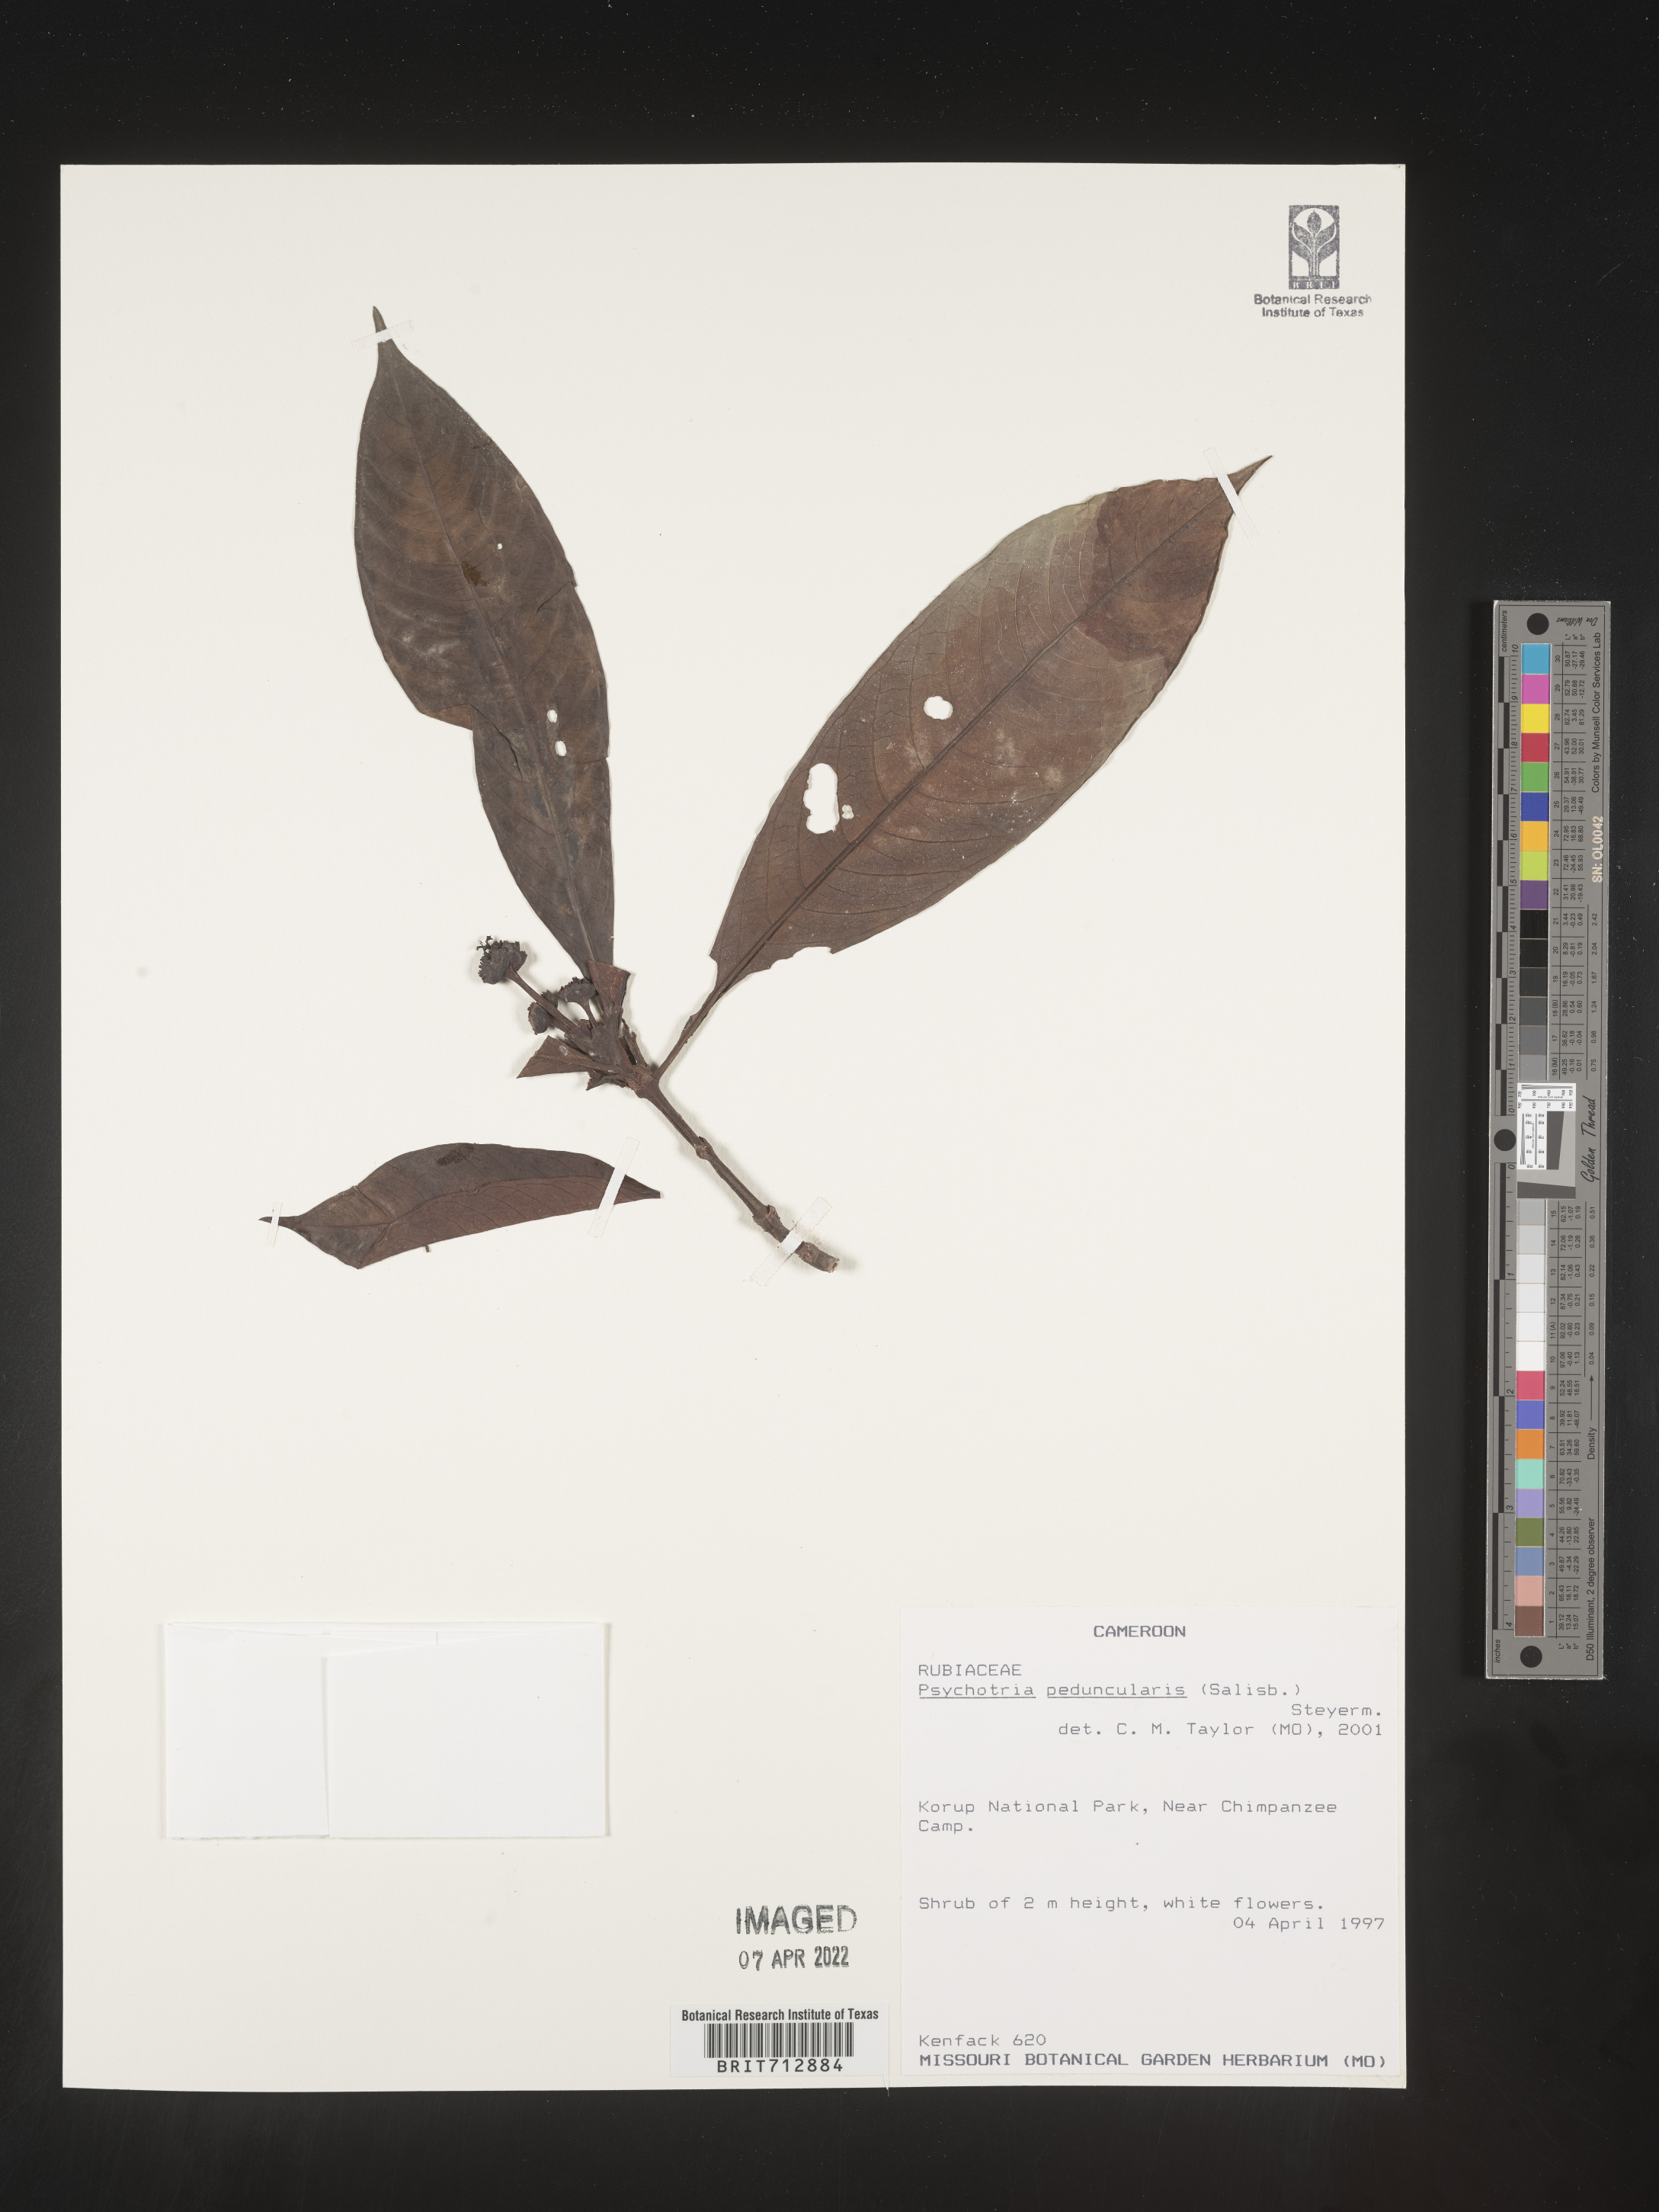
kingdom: Plantae
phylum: Tracheophyta
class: Magnoliopsida
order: Gentianales
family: Rubiaceae
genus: Psychotria
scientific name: Psychotria
